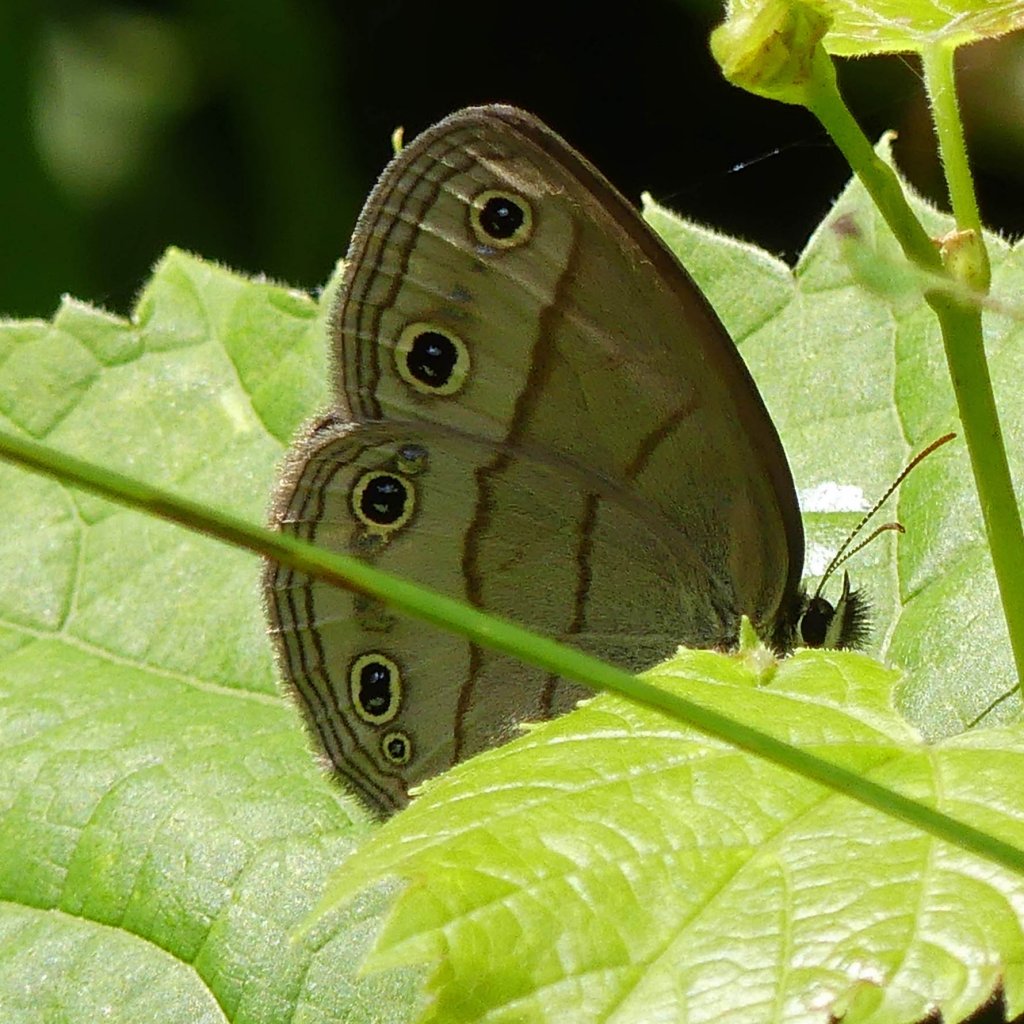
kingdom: Animalia
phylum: Arthropoda
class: Insecta
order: Lepidoptera
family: Nymphalidae
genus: Euptychia
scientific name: Euptychia cymela
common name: Little Wood Satyr
